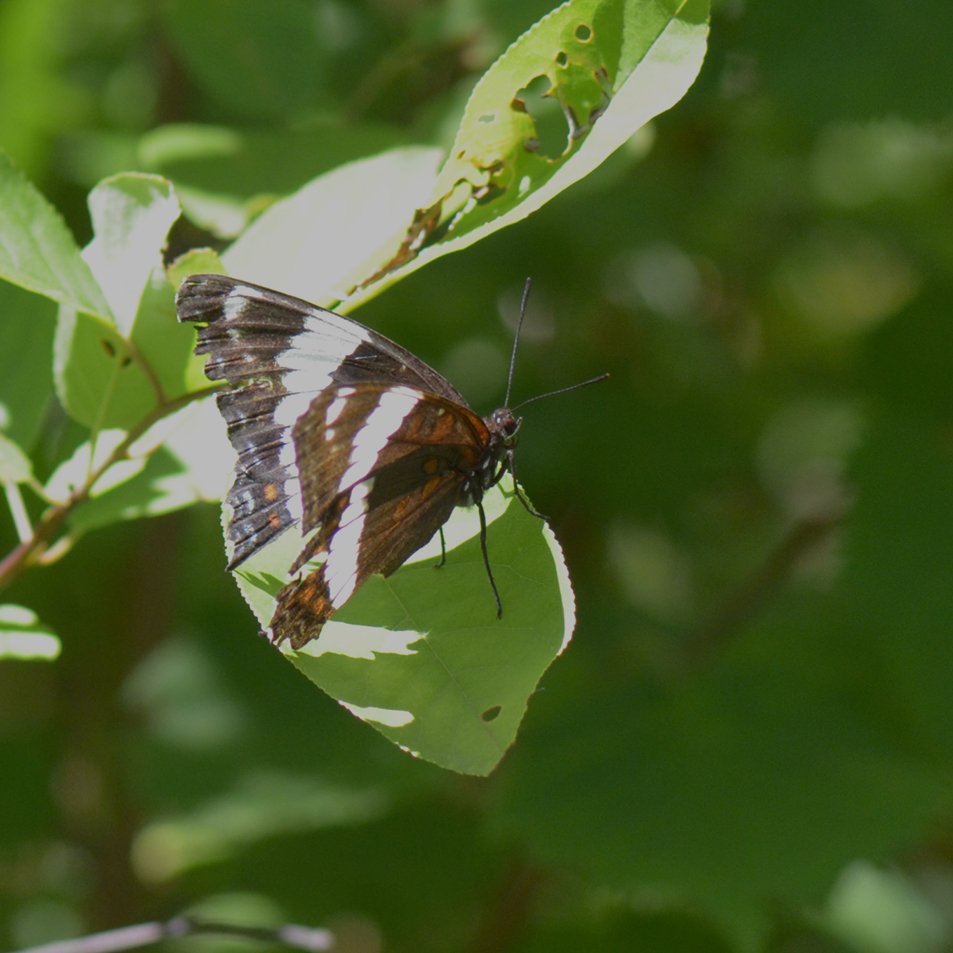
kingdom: Animalia
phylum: Arthropoda
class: Insecta
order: Lepidoptera
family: Nymphalidae
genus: Limenitis
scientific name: Limenitis arthemis
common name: Red-spotted Admiral
